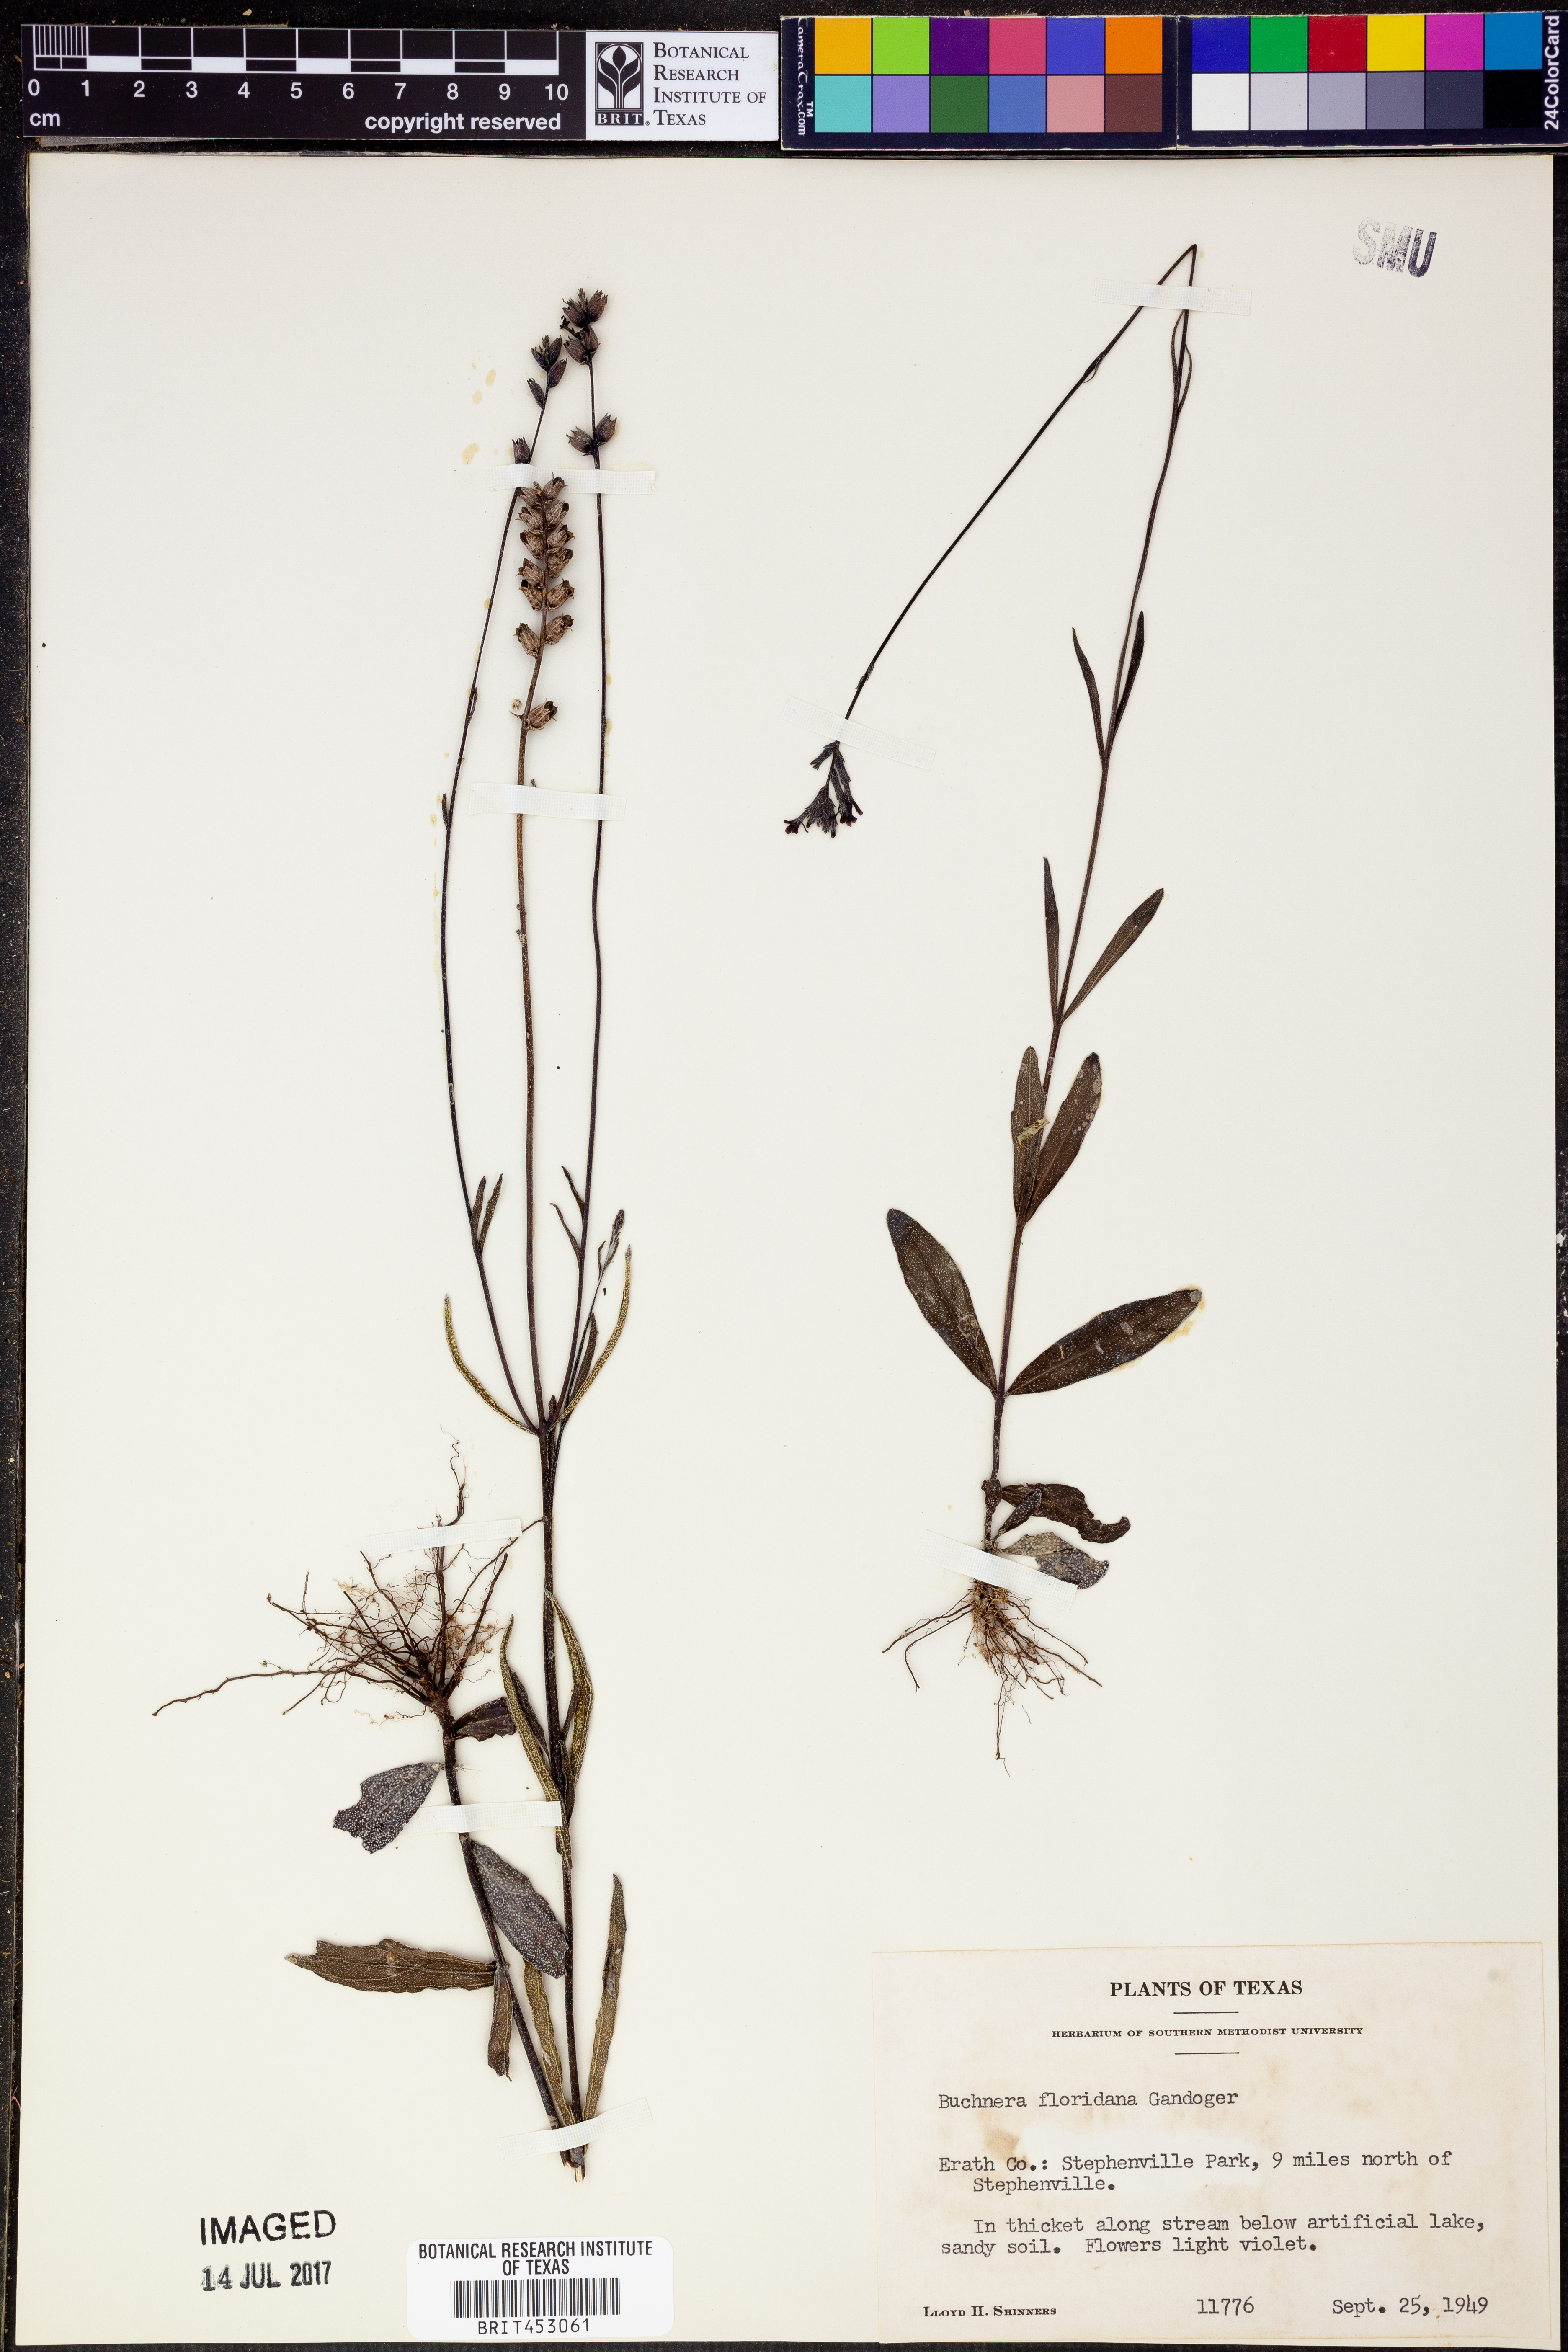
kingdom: Plantae
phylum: Tracheophyta
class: Magnoliopsida
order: Lamiales
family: Orobanchaceae
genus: Buchnera
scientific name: Buchnera floridana
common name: Florida bluehearts
